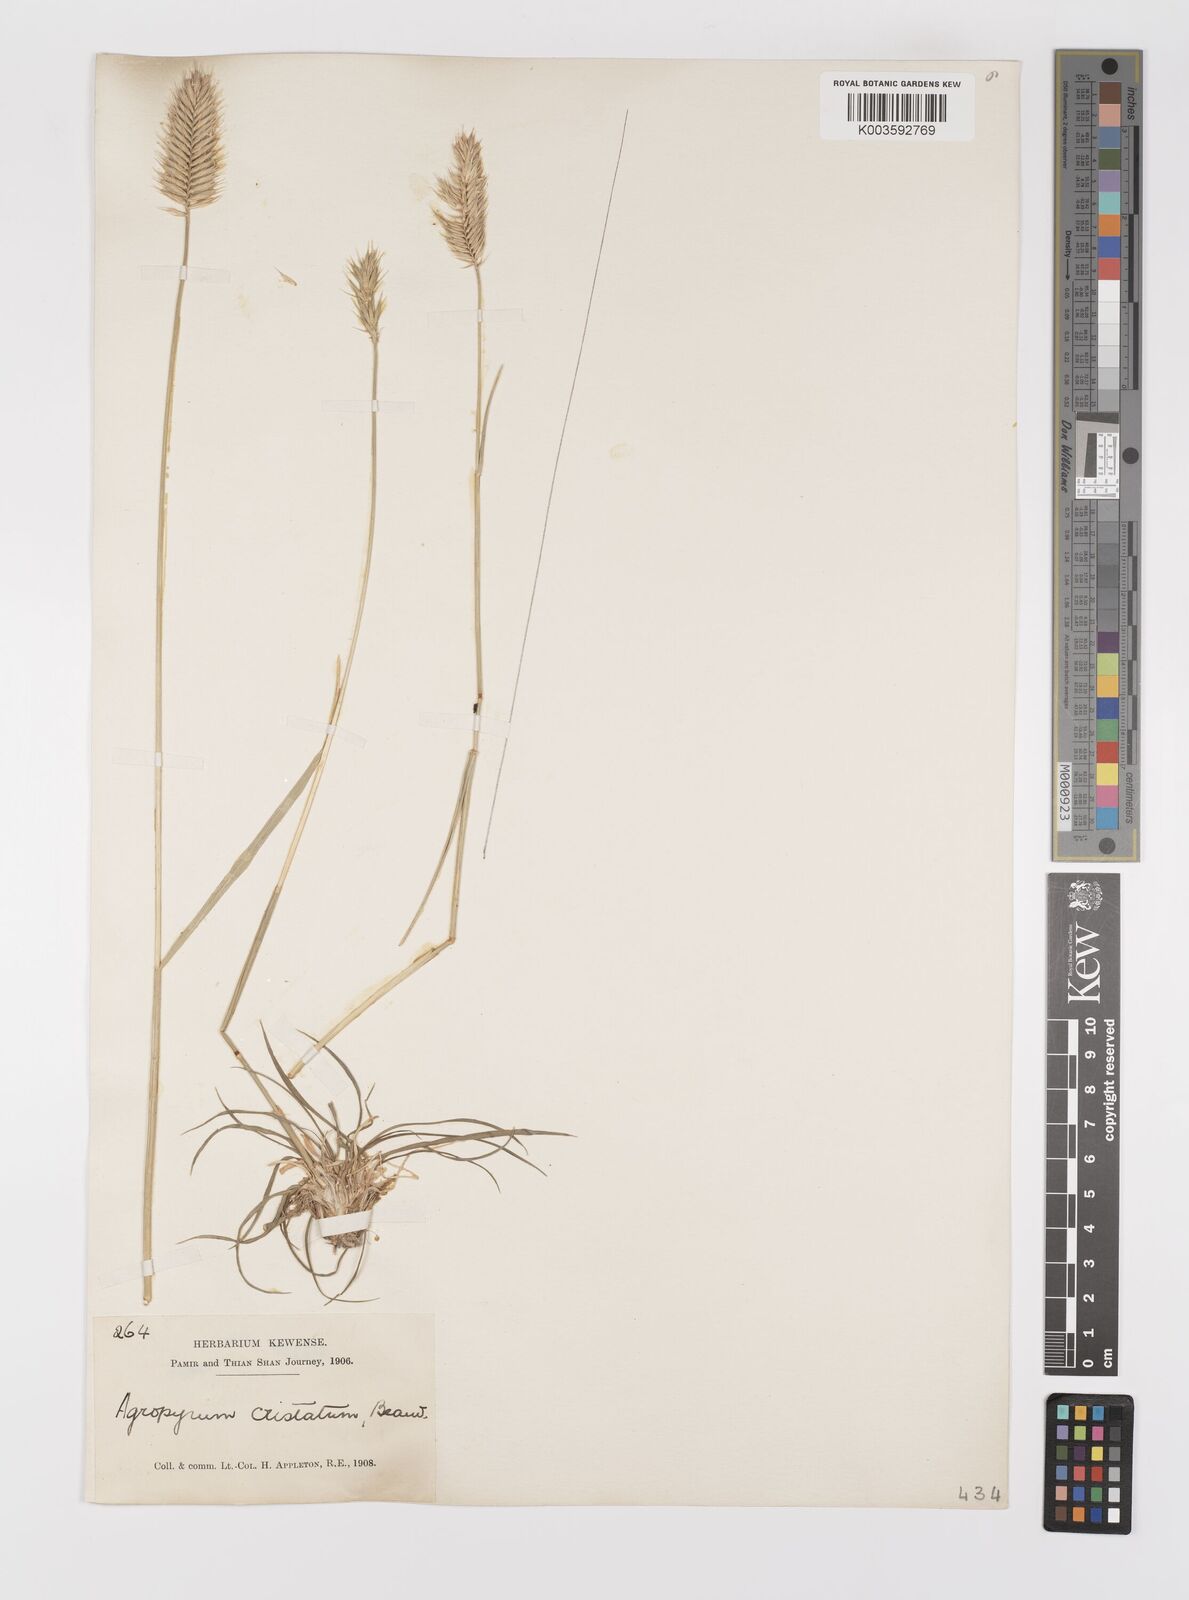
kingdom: Plantae
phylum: Tracheophyta
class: Liliopsida
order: Poales
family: Poaceae
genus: Agropyron
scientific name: Agropyron cristatum
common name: Crested wheatgrass
